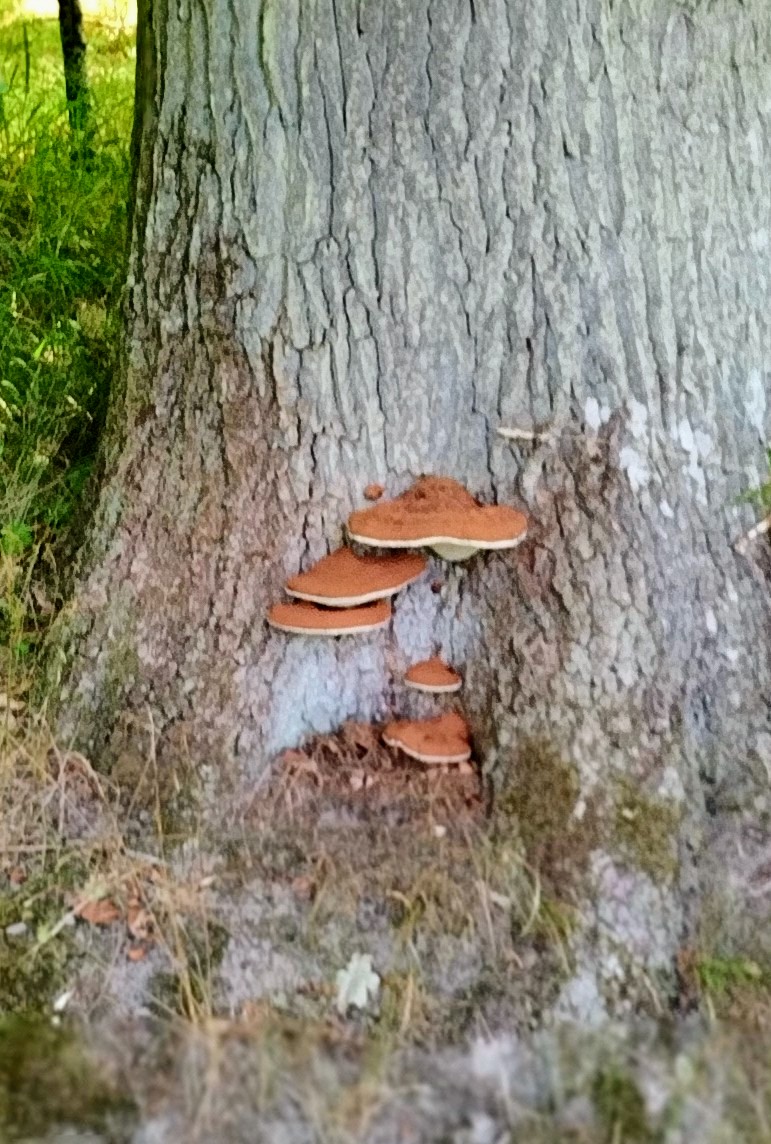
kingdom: Fungi
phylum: Basidiomycota
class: Agaricomycetes
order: Polyporales
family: Polyporaceae
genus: Ganoderma
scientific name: Ganoderma resinaceum
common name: gyldenbrun lakporesvamp
